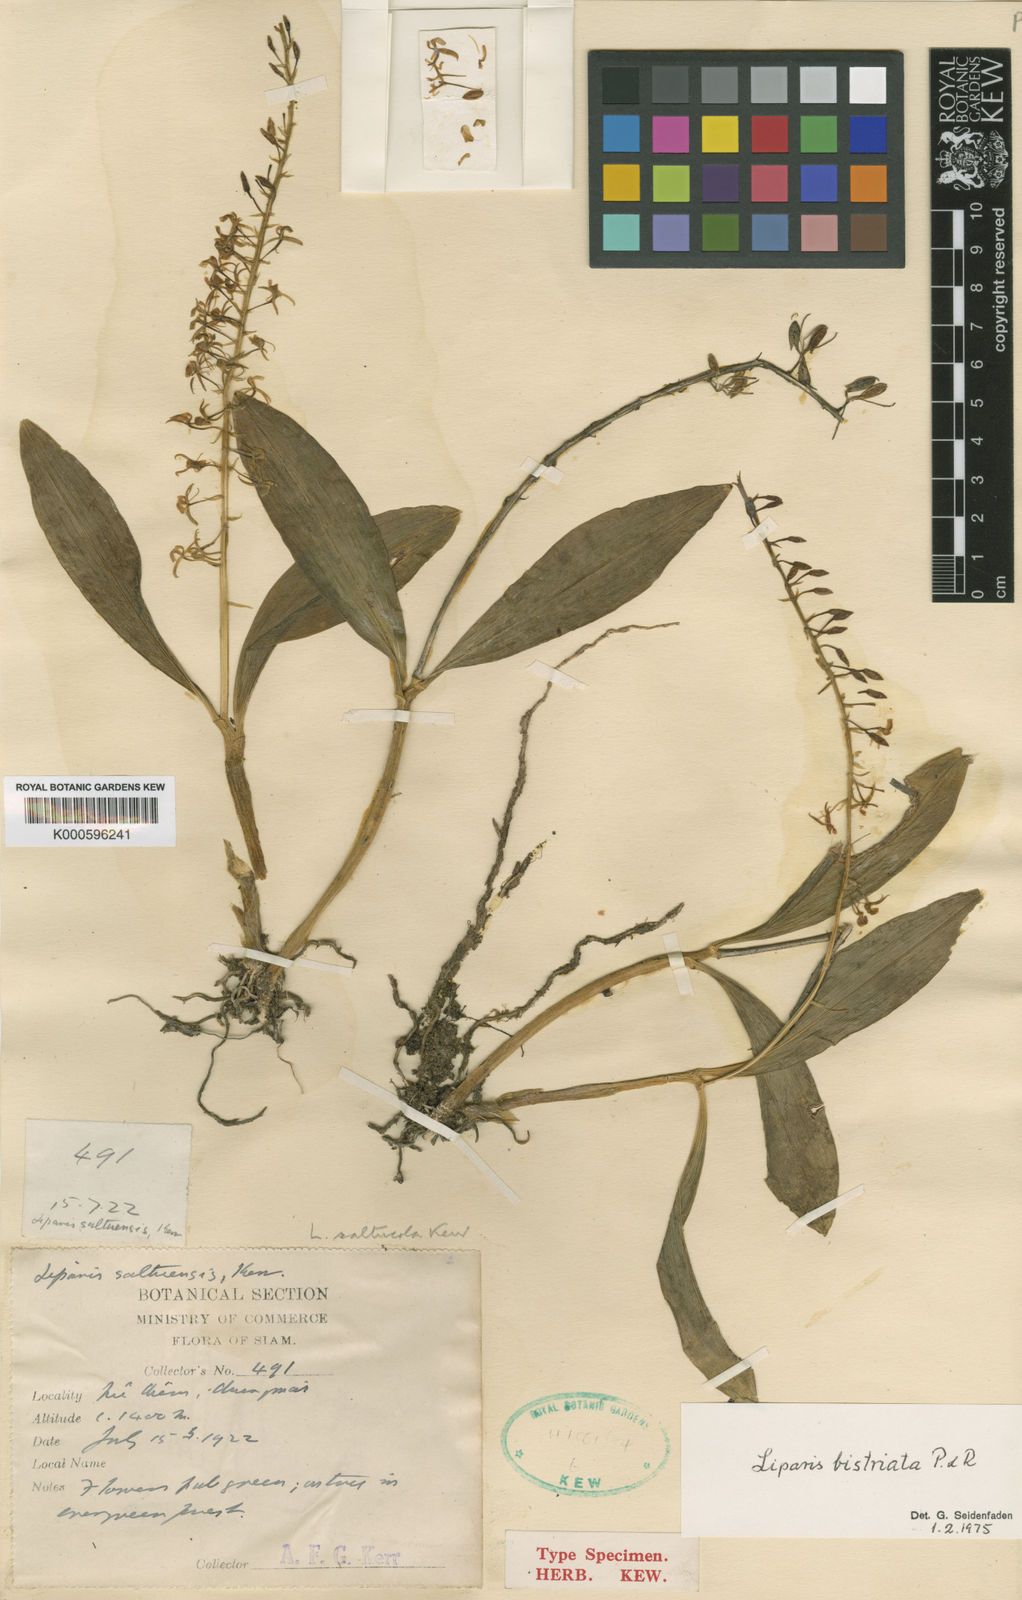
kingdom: Plantae
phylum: Tracheophyta
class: Liliopsida
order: Asparagales
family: Orchidaceae
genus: Liparis
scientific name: Liparis bistriata
